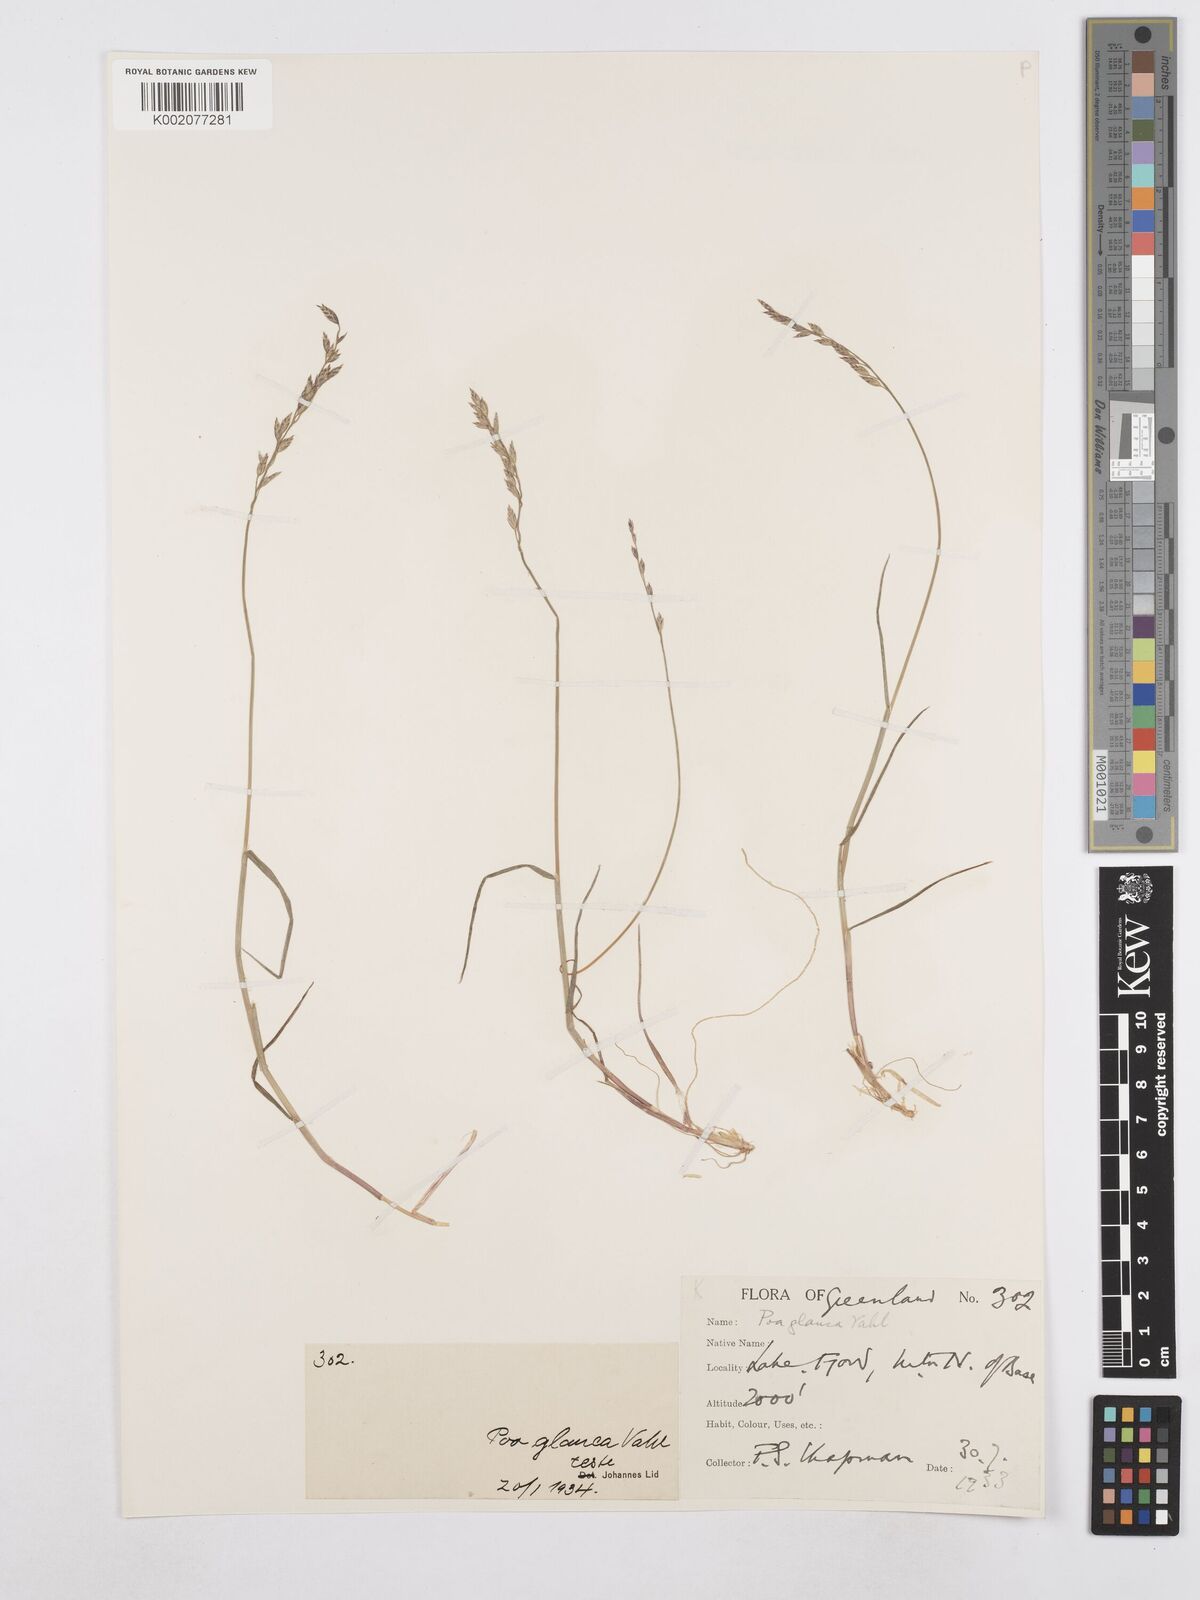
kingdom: Plantae
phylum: Tracheophyta
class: Liliopsida
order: Poales
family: Poaceae
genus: Poa
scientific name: Poa glauca
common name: Glaucous bluegrass
